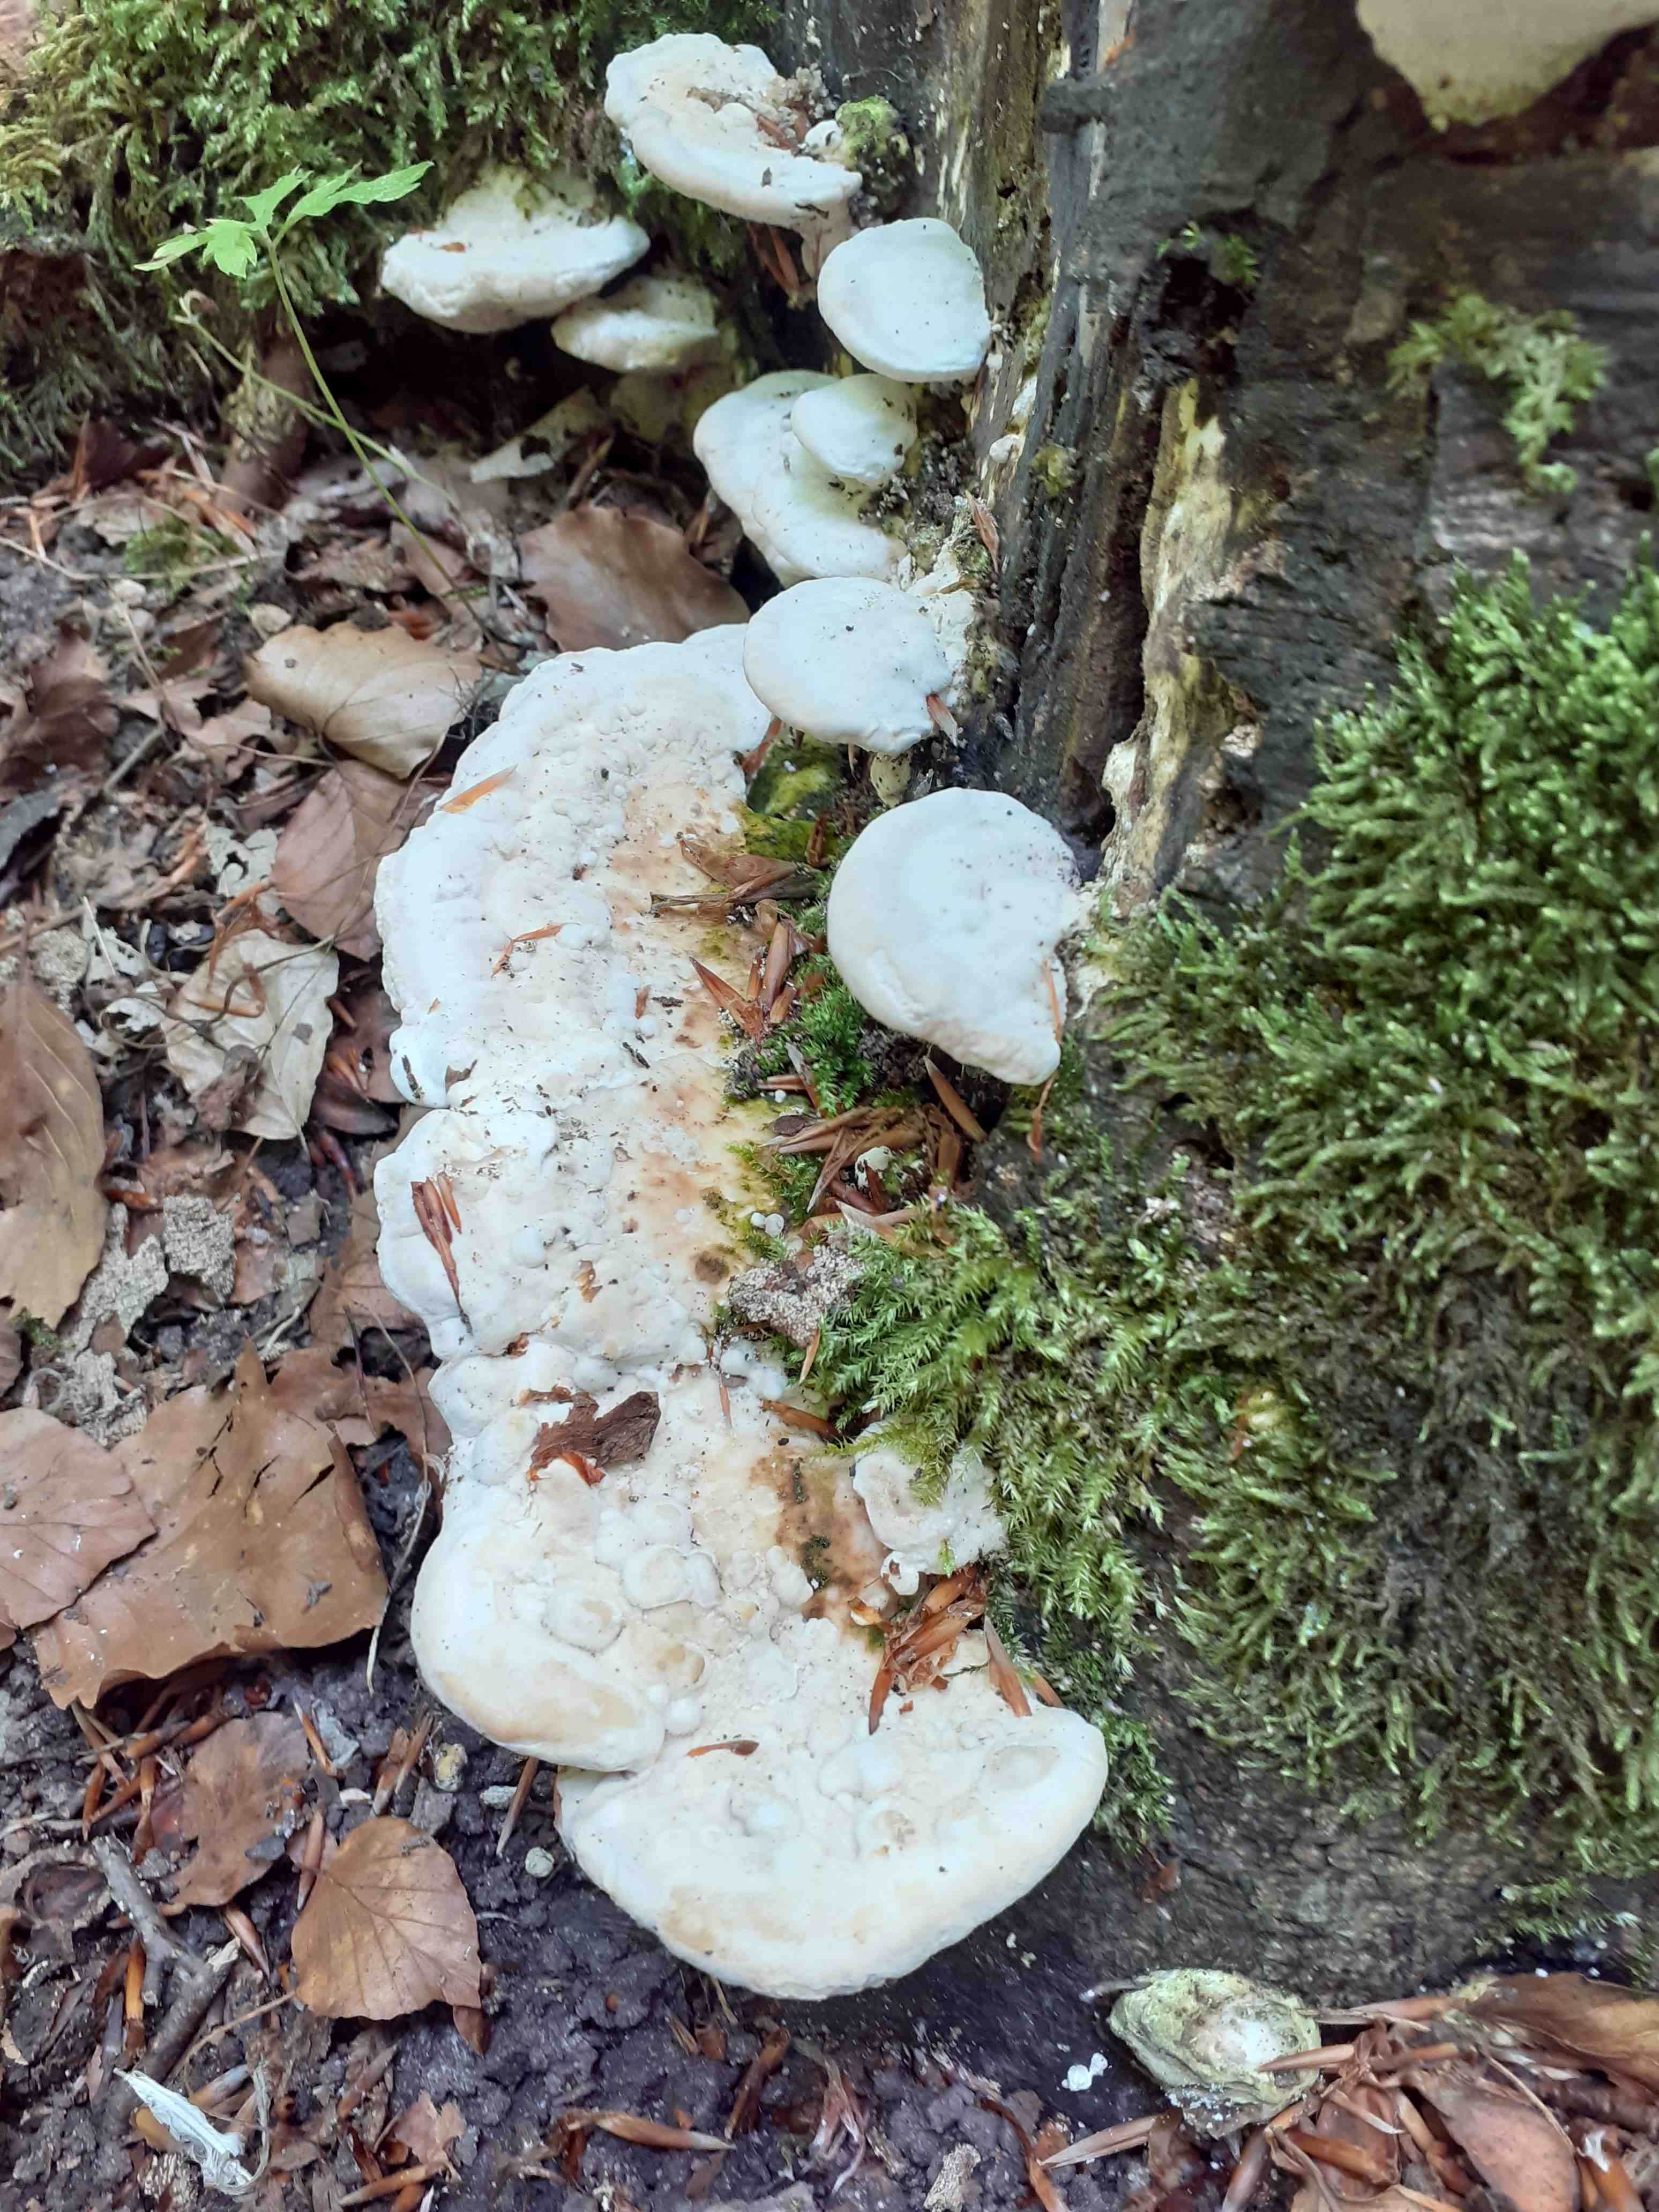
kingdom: Fungi
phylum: Basidiomycota
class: Agaricomycetes
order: Polyporales
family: Polyporaceae
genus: Trametes
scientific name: Trametes gibbosa
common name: puklet læderporesvamp
